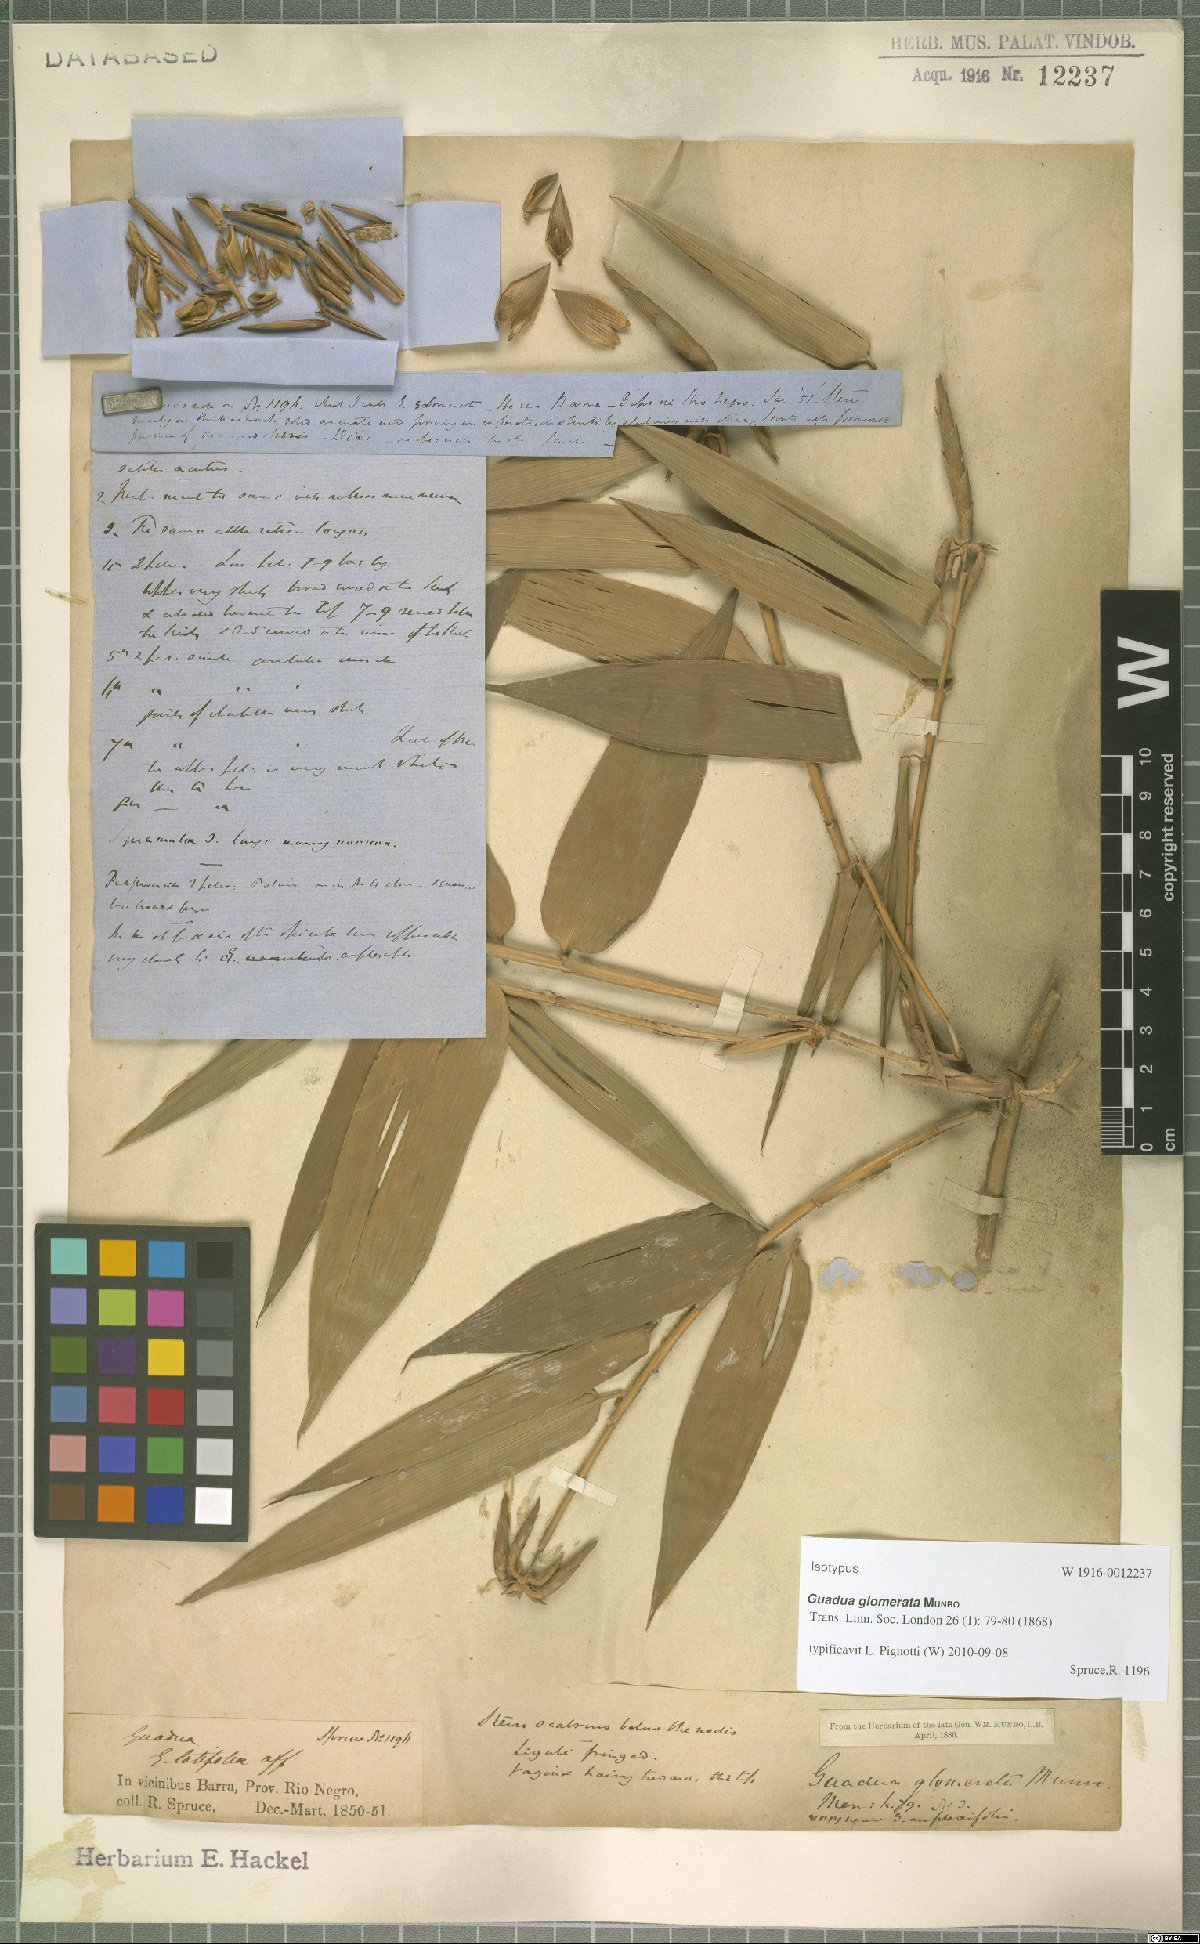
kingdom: Plantae
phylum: Tracheophyta
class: Liliopsida
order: Poales
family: Poaceae
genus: Guadua
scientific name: Guadua glomerata
